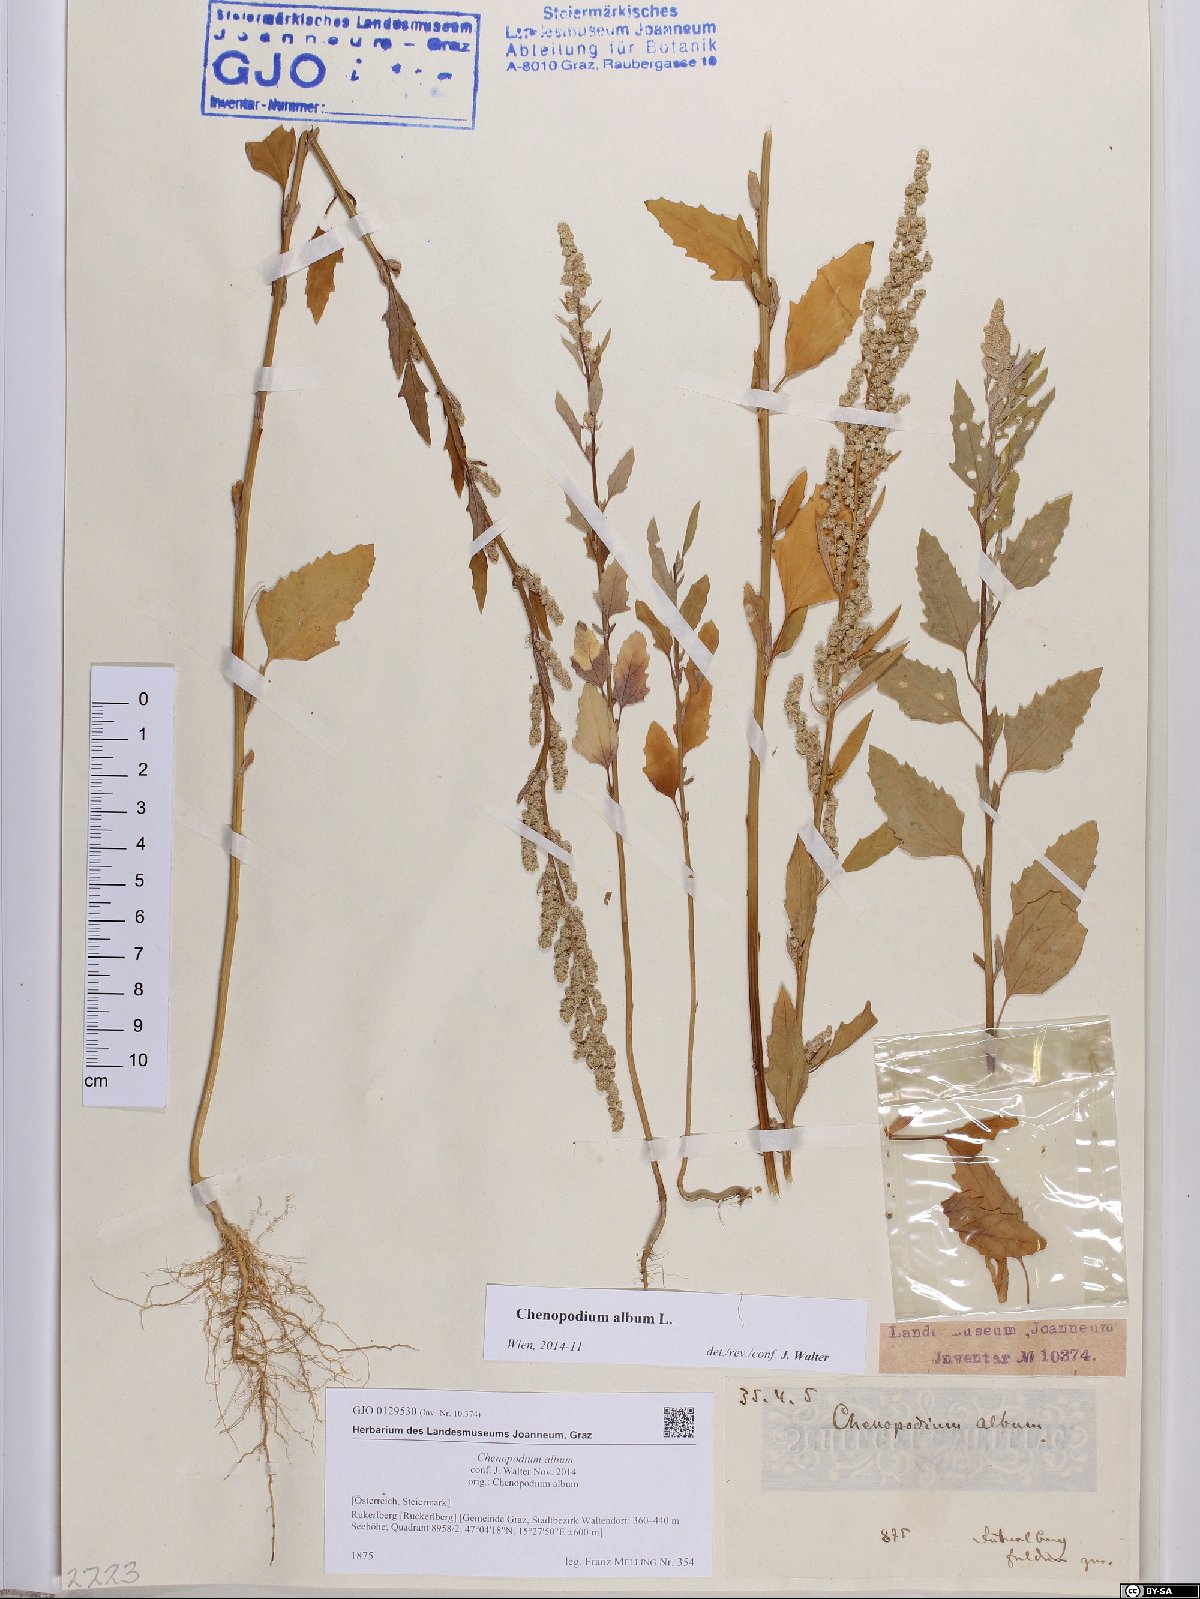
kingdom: Plantae
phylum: Tracheophyta
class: Magnoliopsida
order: Caryophyllales
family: Amaranthaceae
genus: Chenopodium
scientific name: Chenopodium album
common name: Fat-hen
